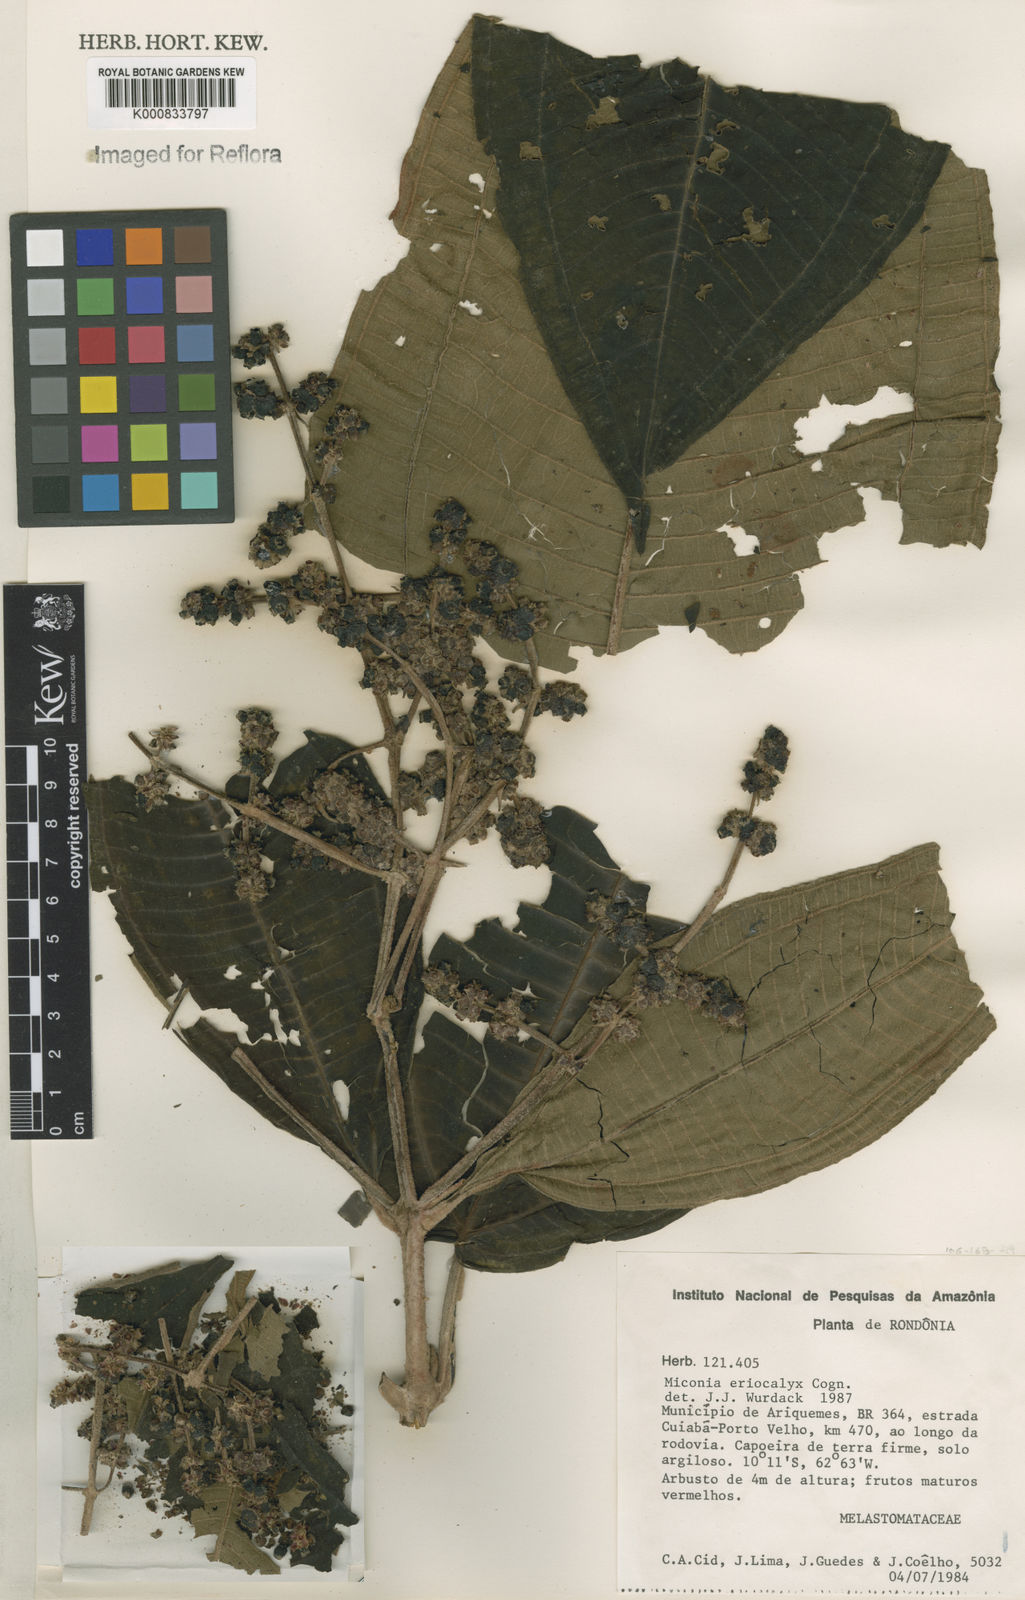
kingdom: Plantae
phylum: Tracheophyta
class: Magnoliopsida
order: Myrtales
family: Melastomataceae
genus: Miconia
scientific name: Miconia eriocalyx
